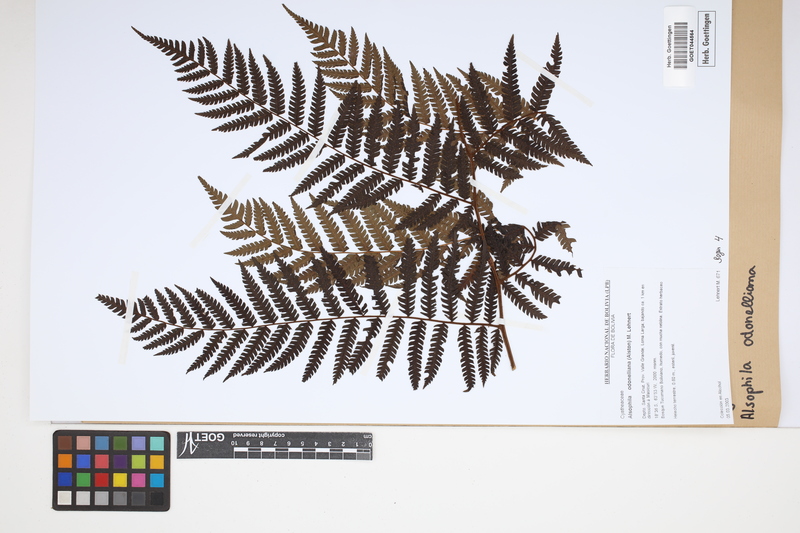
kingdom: Plantae
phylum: Tracheophyta
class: Polypodiopsida
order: Cyatheales
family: Cyatheaceae
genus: Alsophila
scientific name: Alsophila odonelliana
